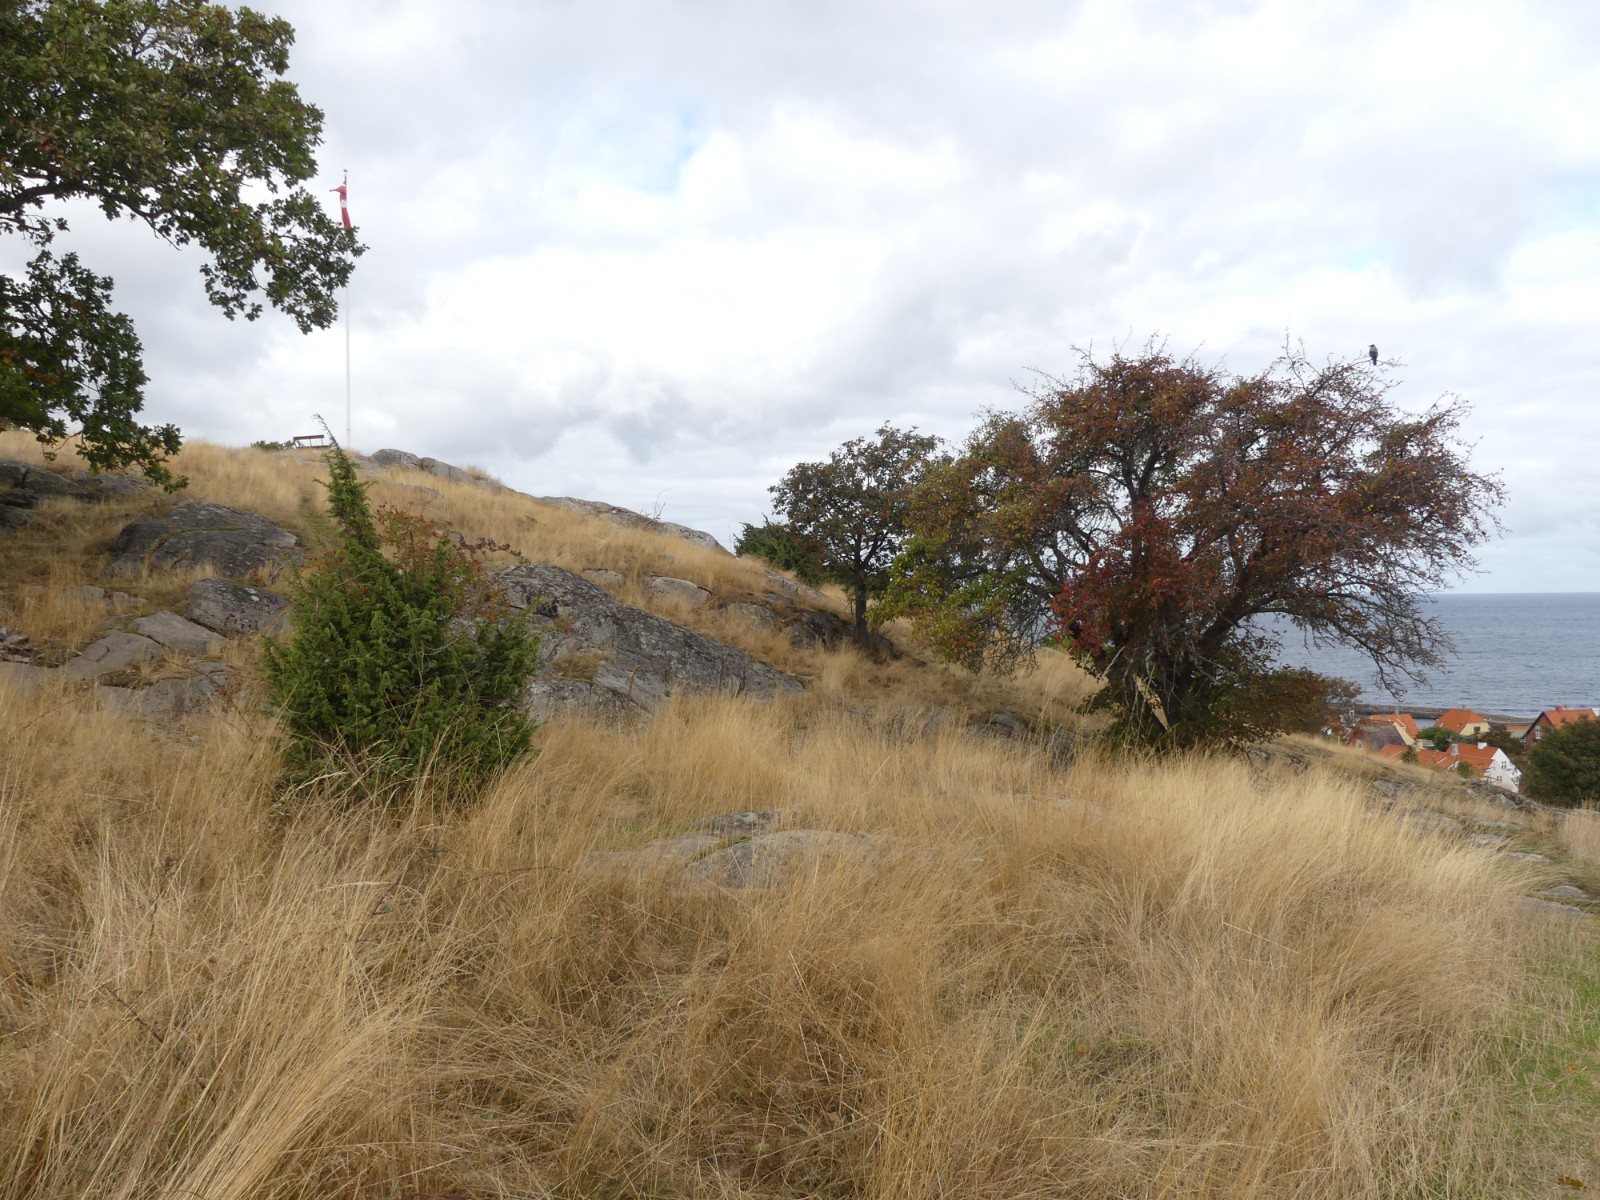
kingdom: Fungi
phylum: Basidiomycota
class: Agaricomycetes
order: Agaricales
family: Agaricaceae
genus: Lycoperdon
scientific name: Lycoperdon
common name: støvbold
